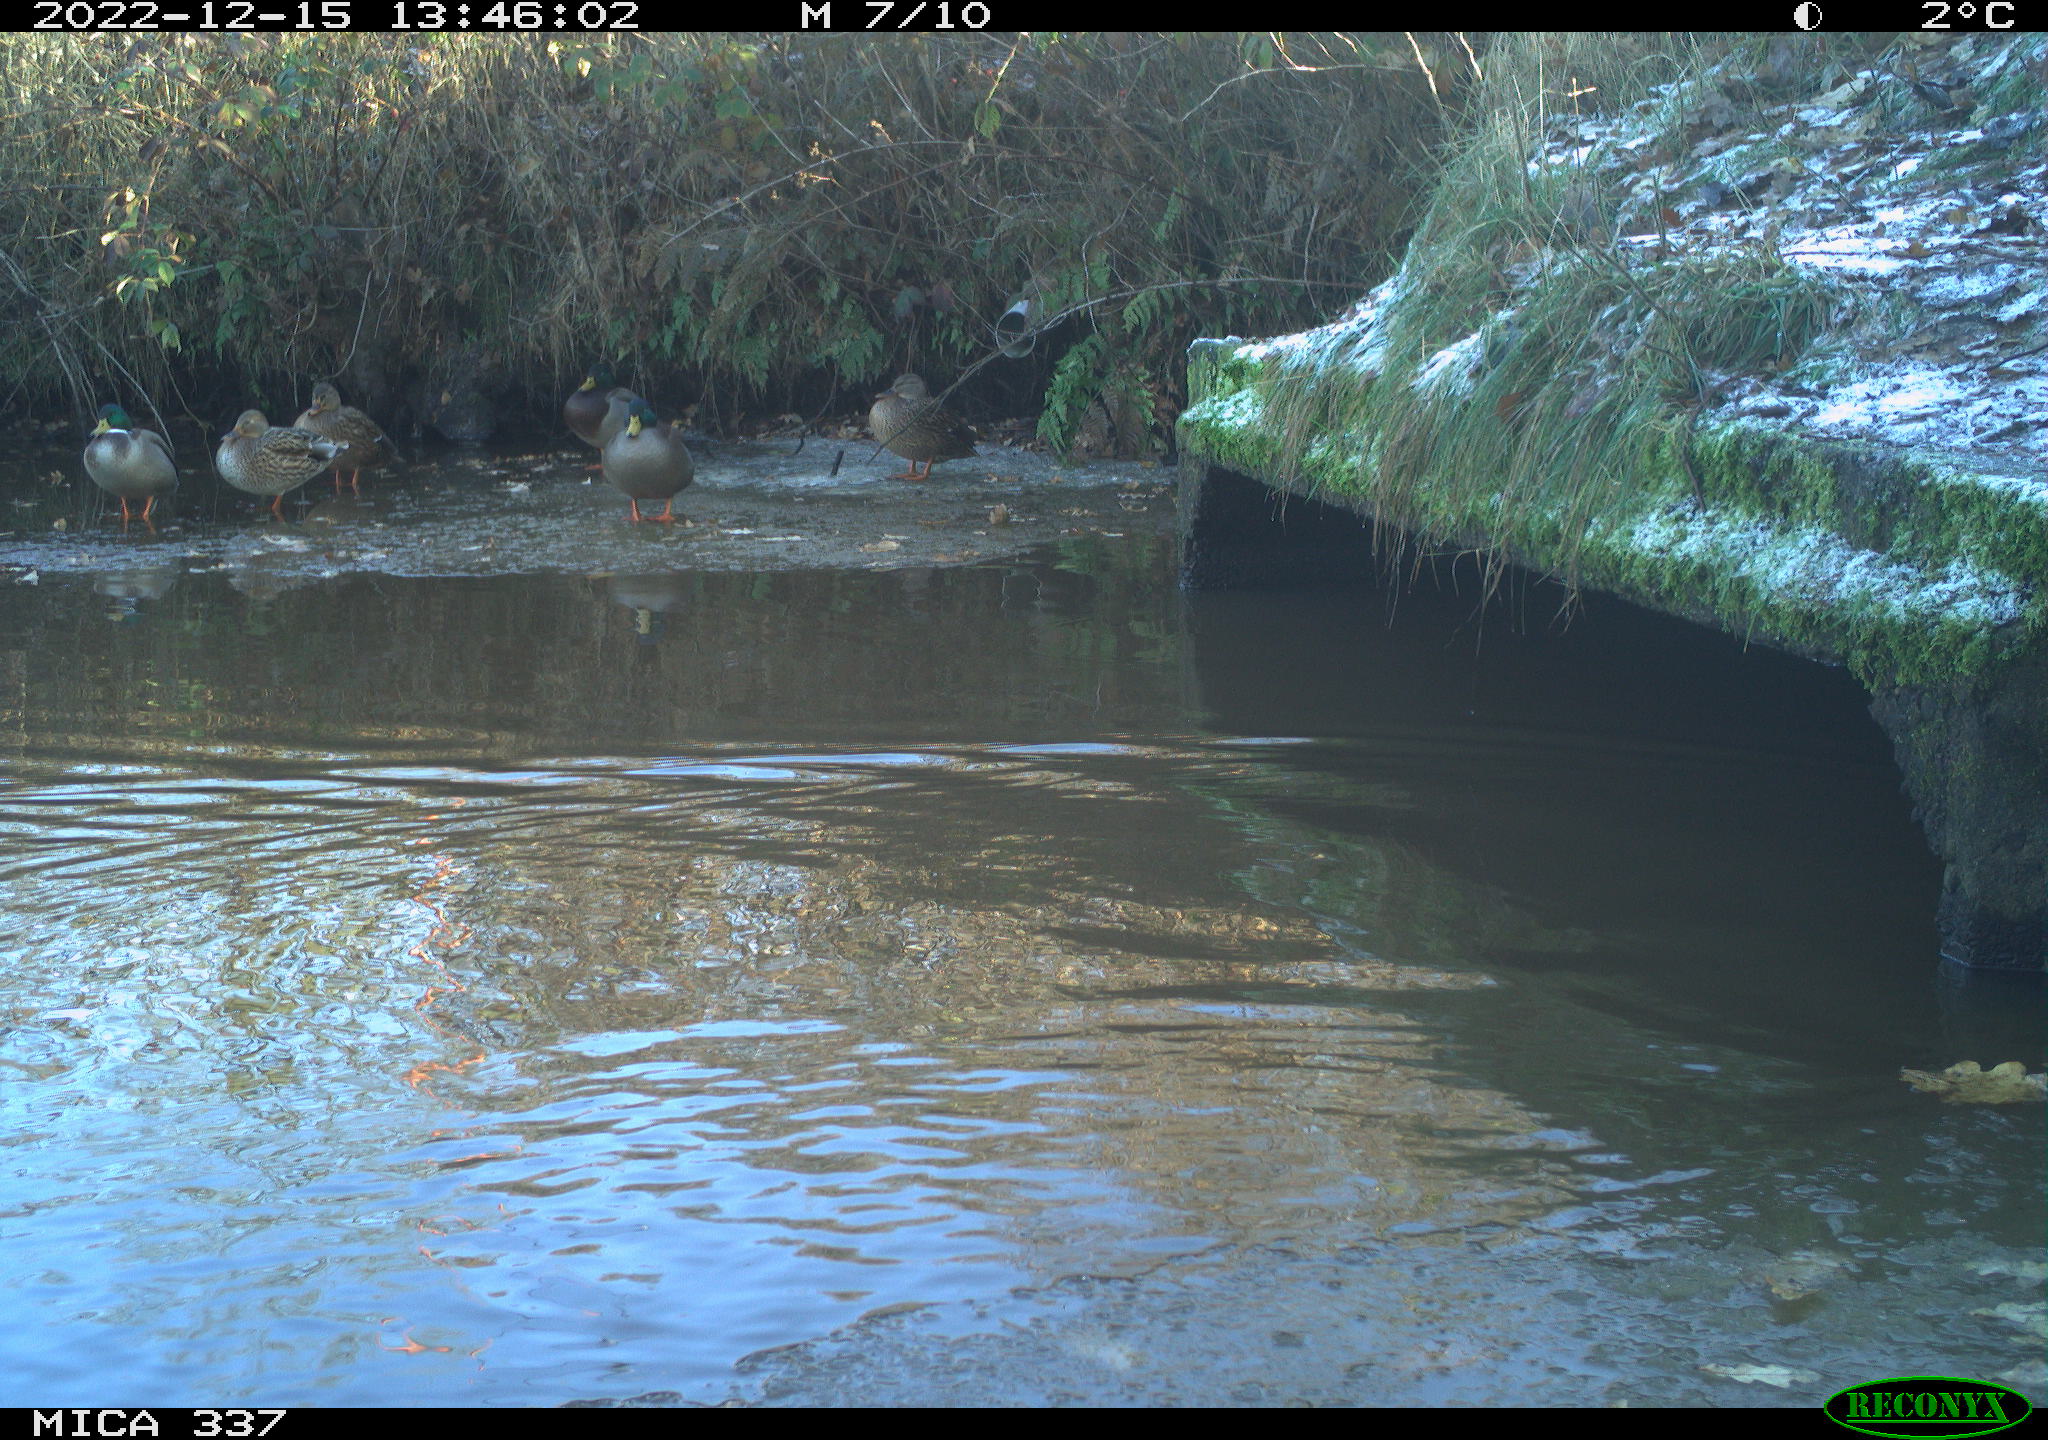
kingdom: Animalia
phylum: Chordata
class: Aves
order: Anseriformes
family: Anatidae
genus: Anas
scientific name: Anas
